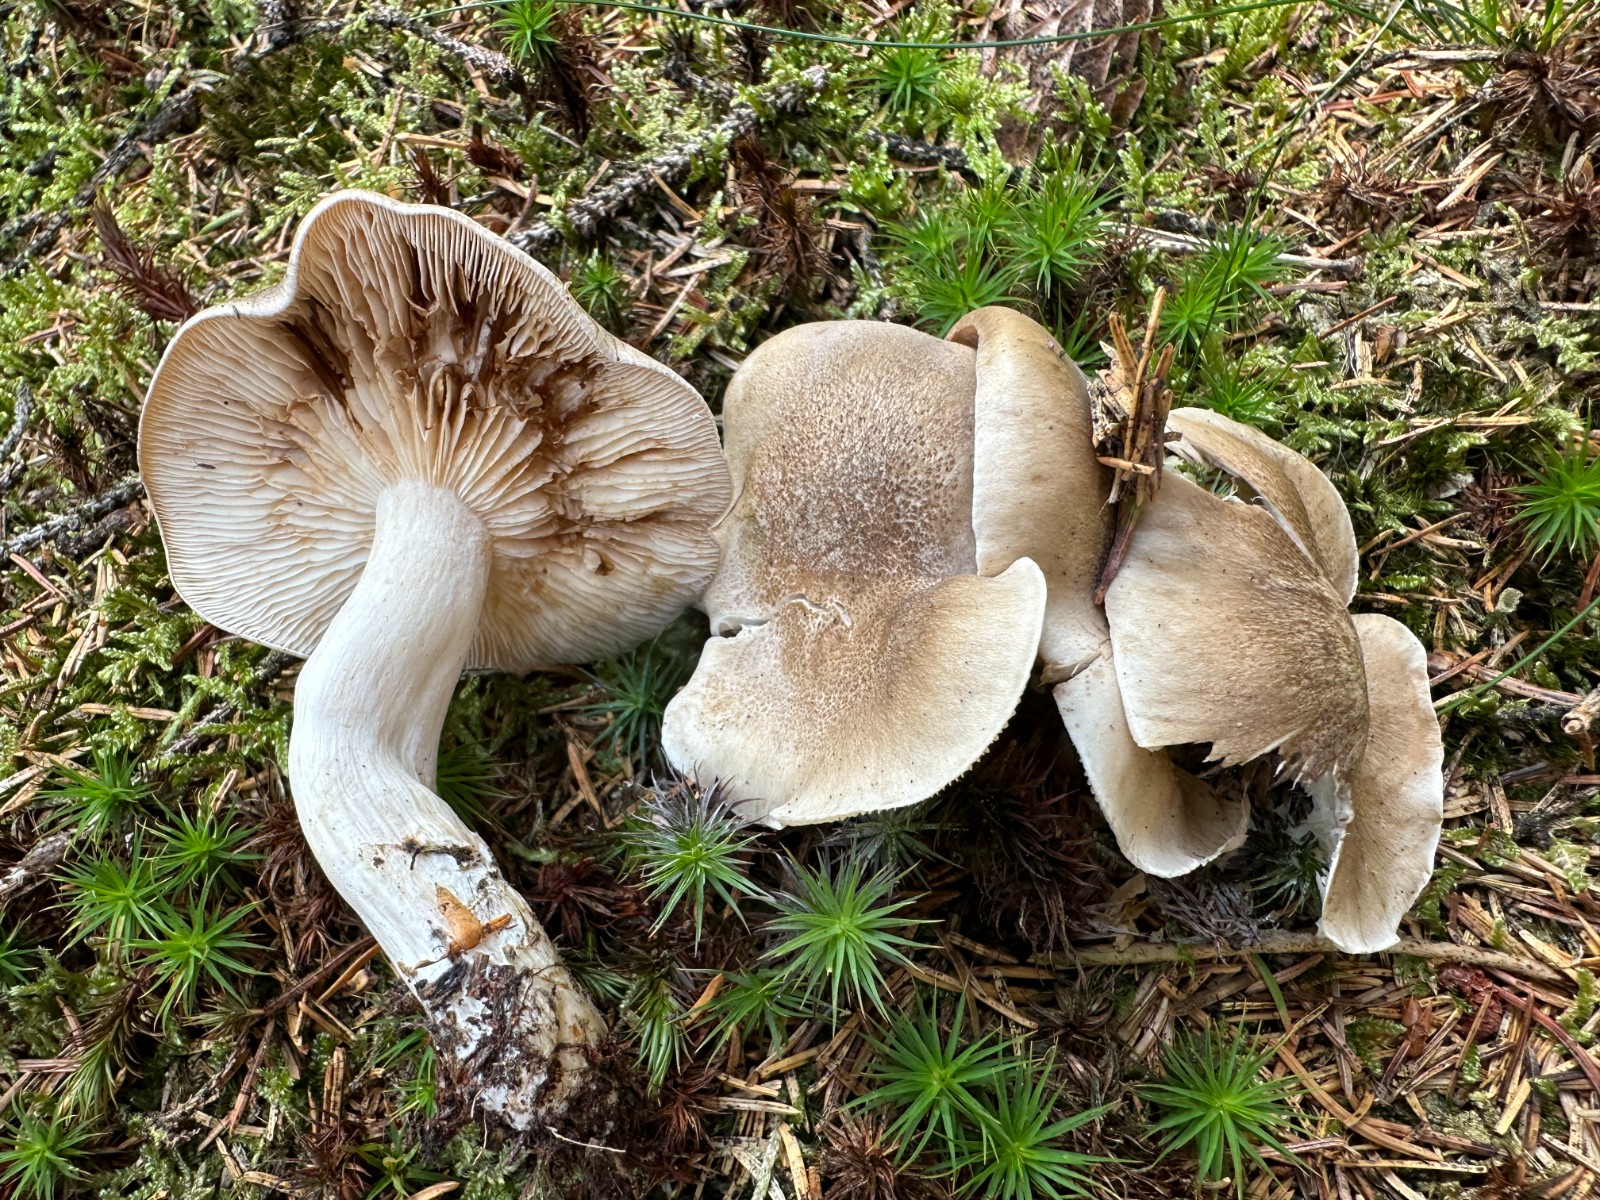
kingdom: Fungi
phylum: Basidiomycota
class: Agaricomycetes
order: Agaricales
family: Lyophyllaceae
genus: Lyophyllum
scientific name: Lyophyllum shimeji
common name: shimeji-gråblad
